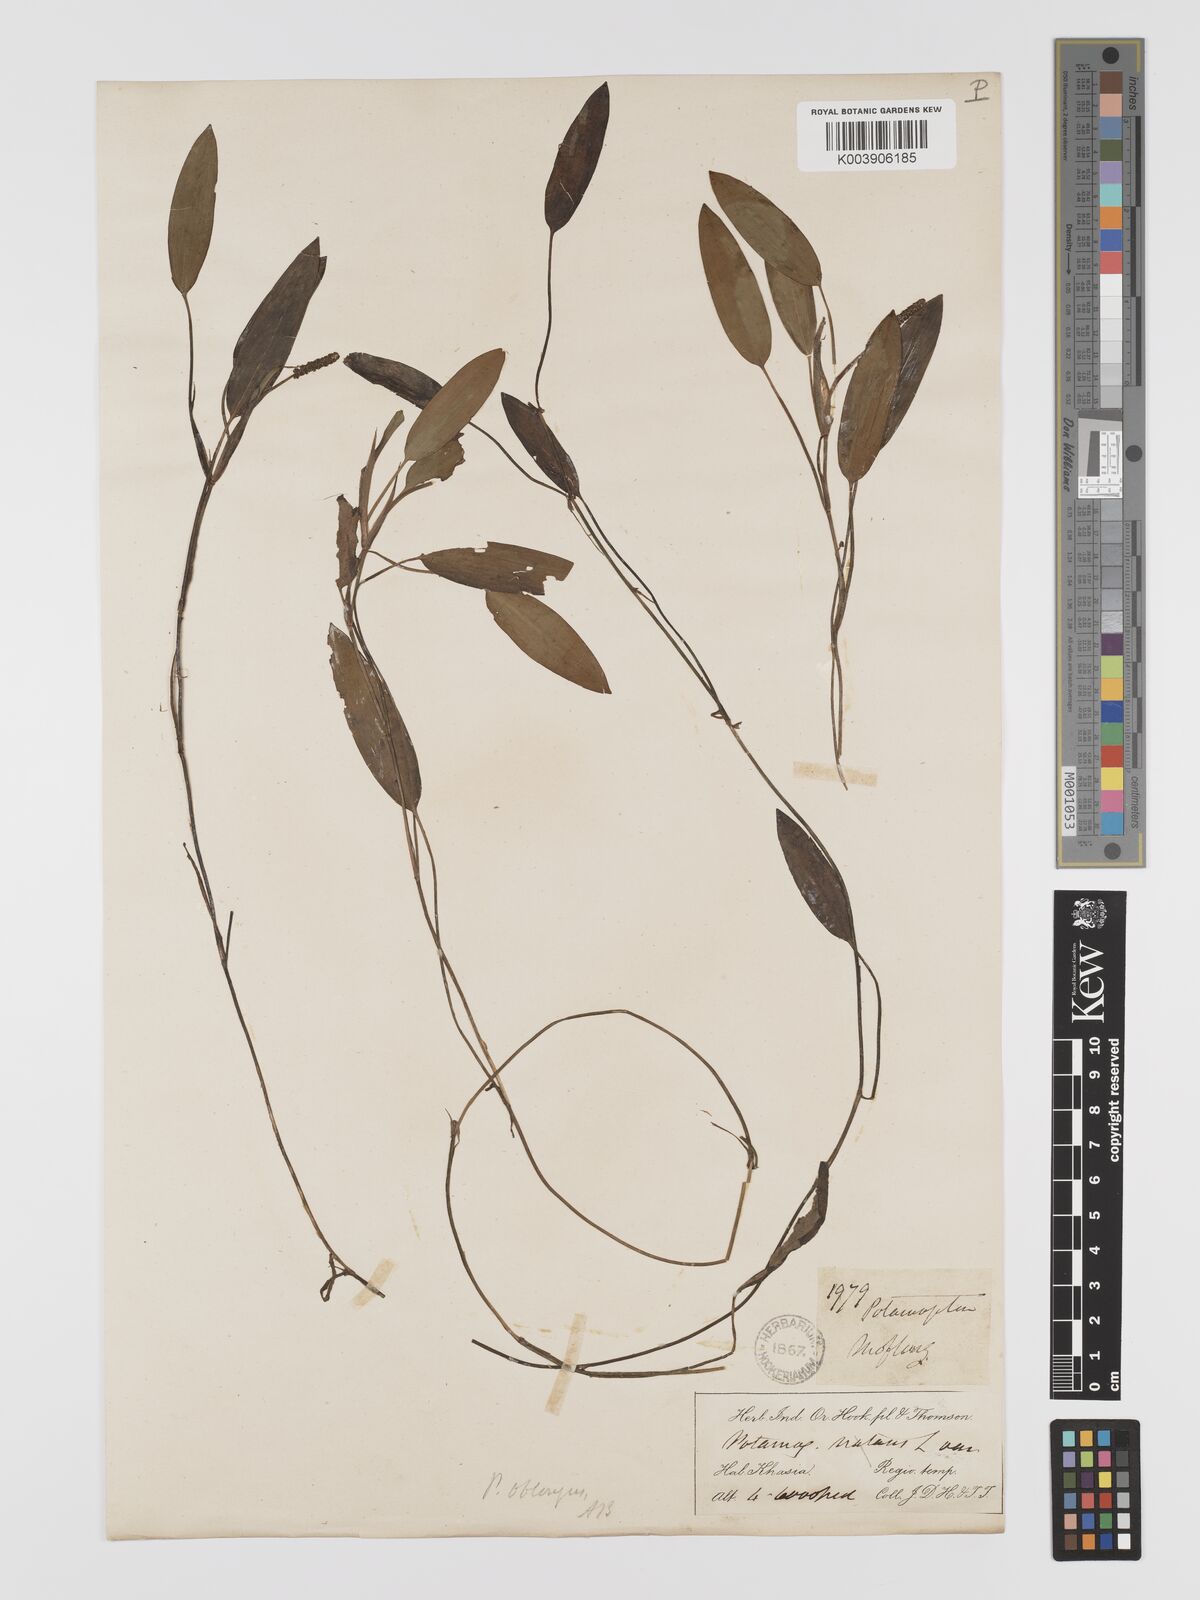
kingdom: Plantae
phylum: Tracheophyta
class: Liliopsida
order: Alismatales
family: Potamogetonaceae
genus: Potamogeton
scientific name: Potamogeton yamagataensis
